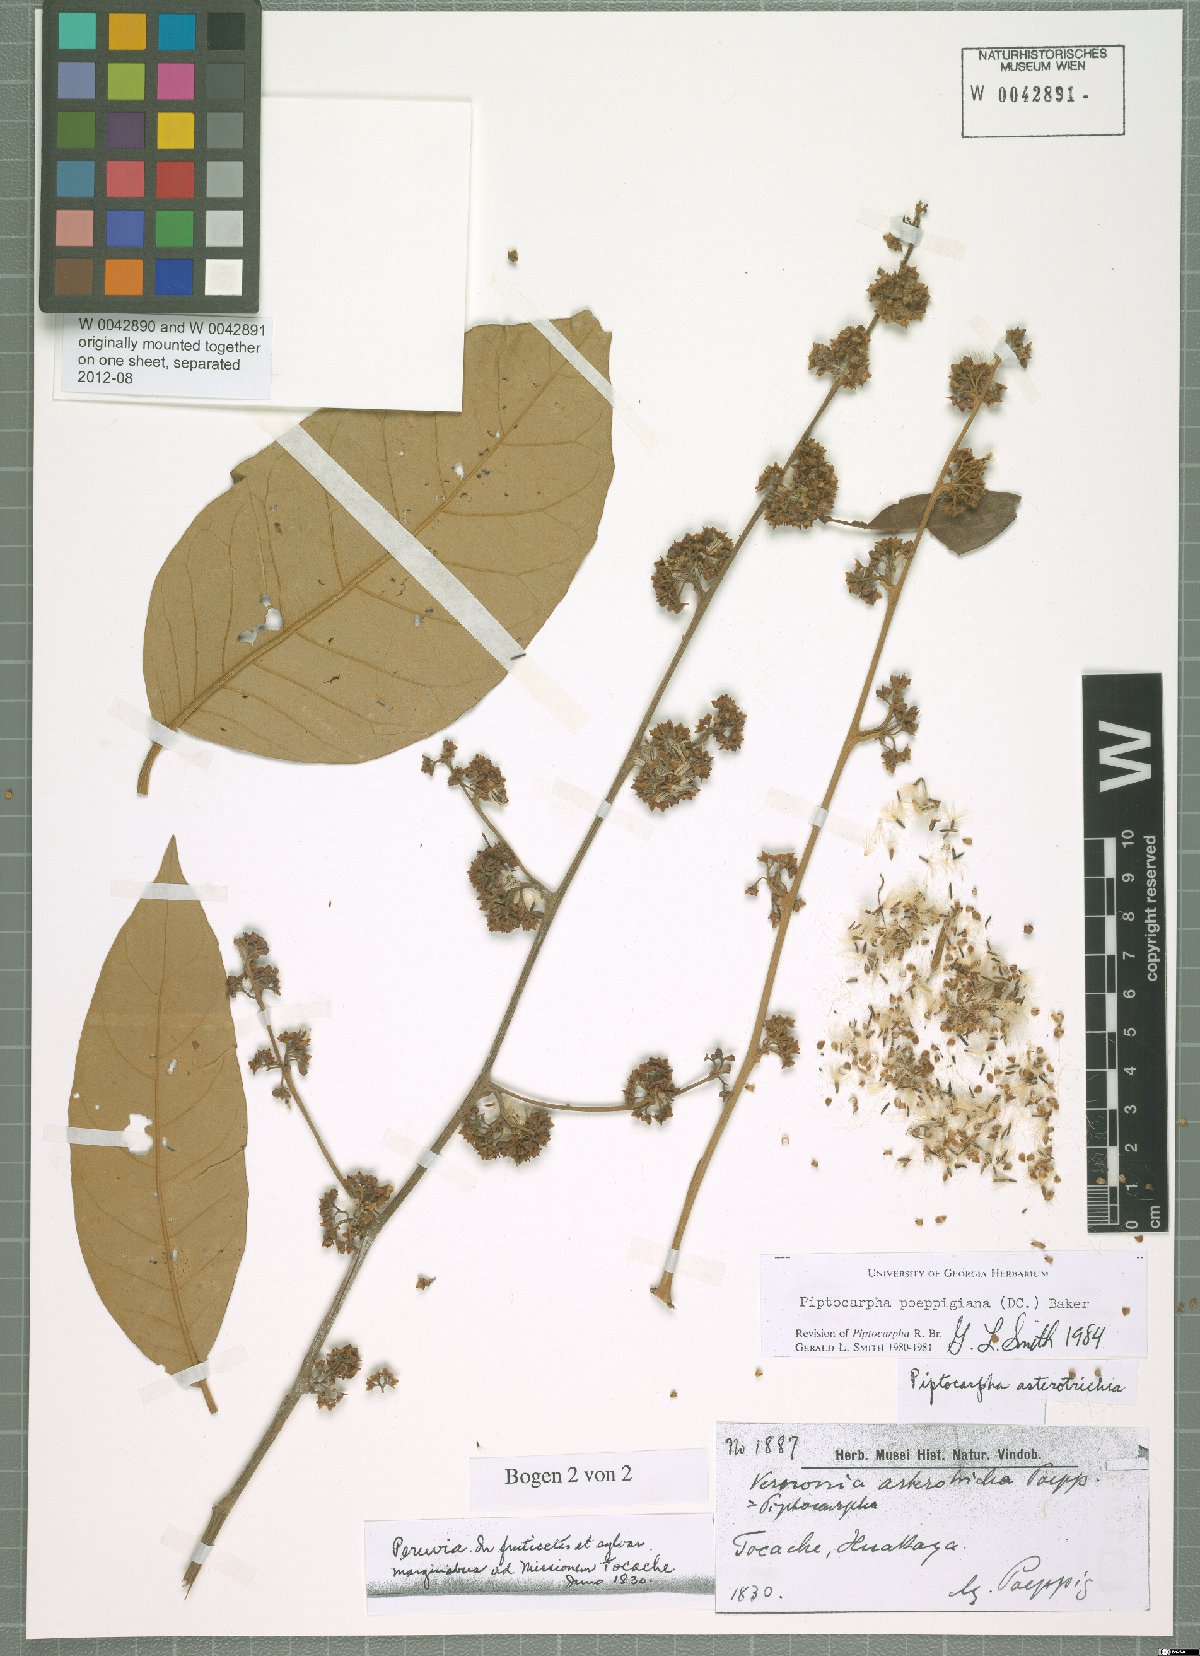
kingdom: Plantae
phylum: Tracheophyta
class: Magnoliopsida
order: Asterales
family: Asteraceae
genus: Piptocarpha
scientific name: Piptocarpha poeppigiana
